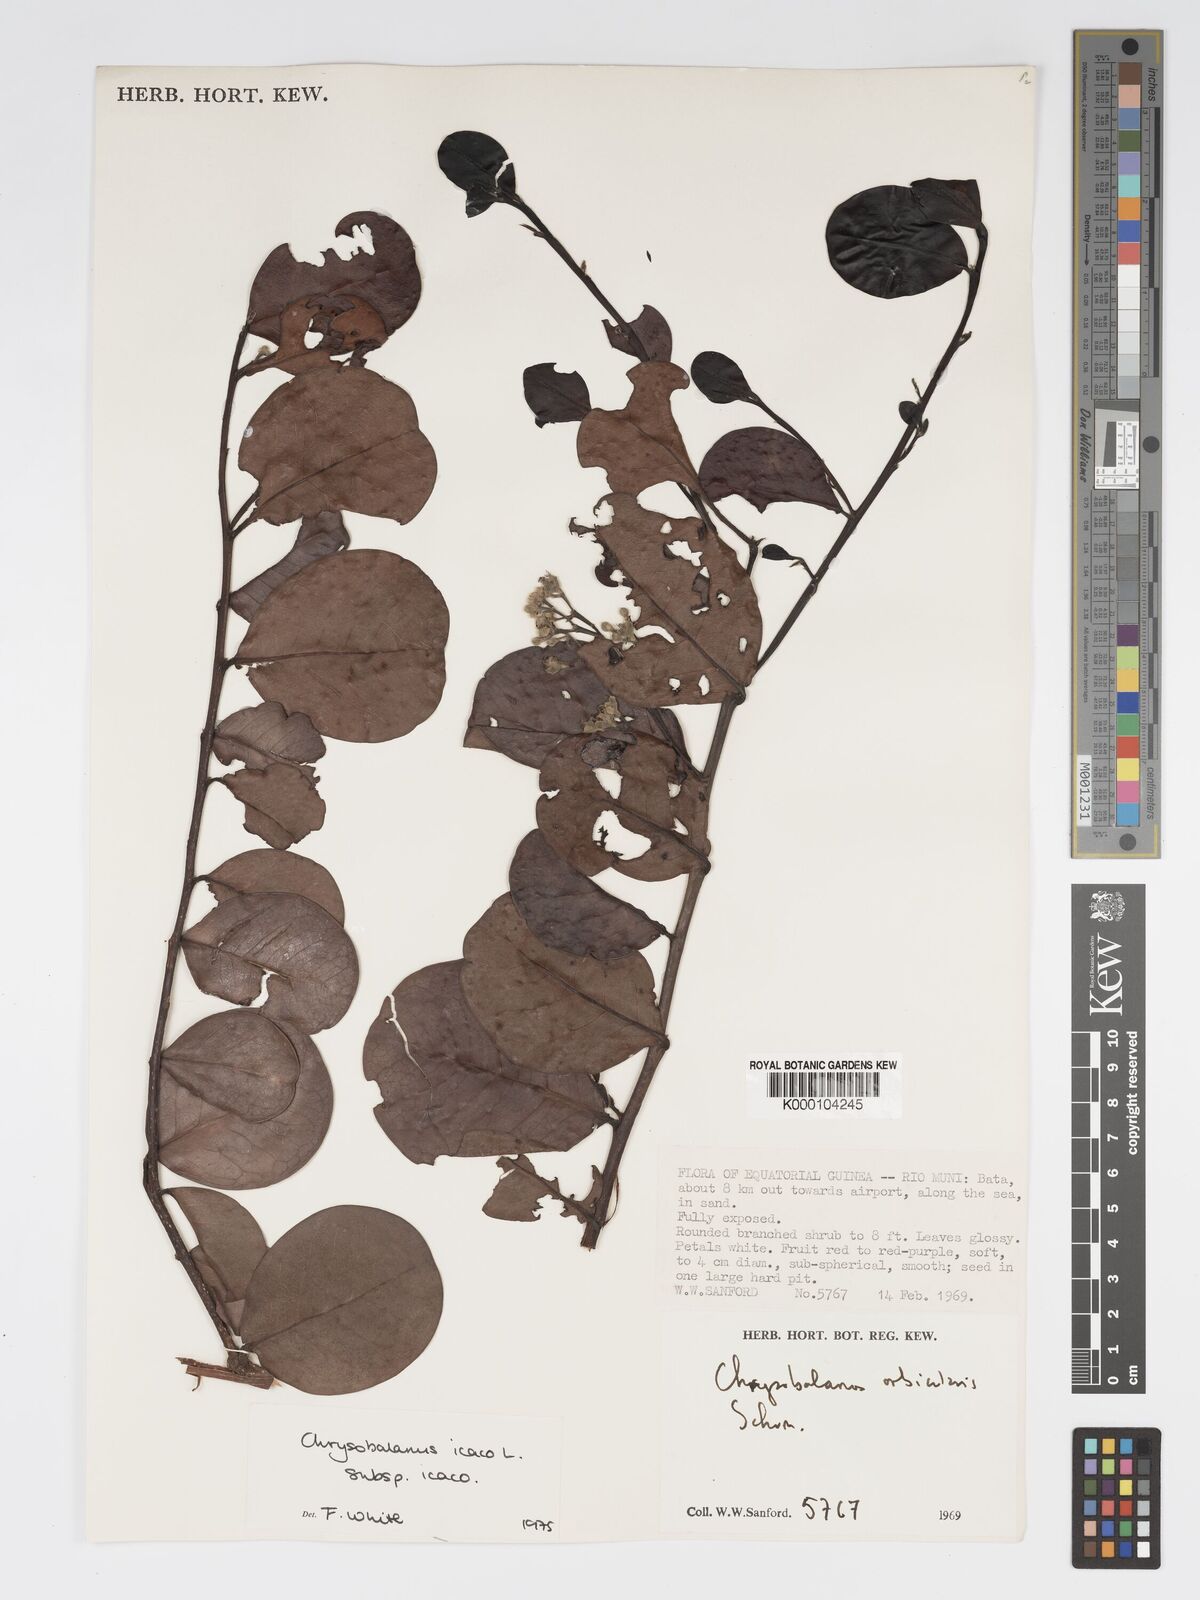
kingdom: Plantae
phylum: Tracheophyta
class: Magnoliopsida
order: Malpighiales
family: Chrysobalanaceae
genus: Chrysobalanus
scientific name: Chrysobalanus icaco
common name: Coco plum
